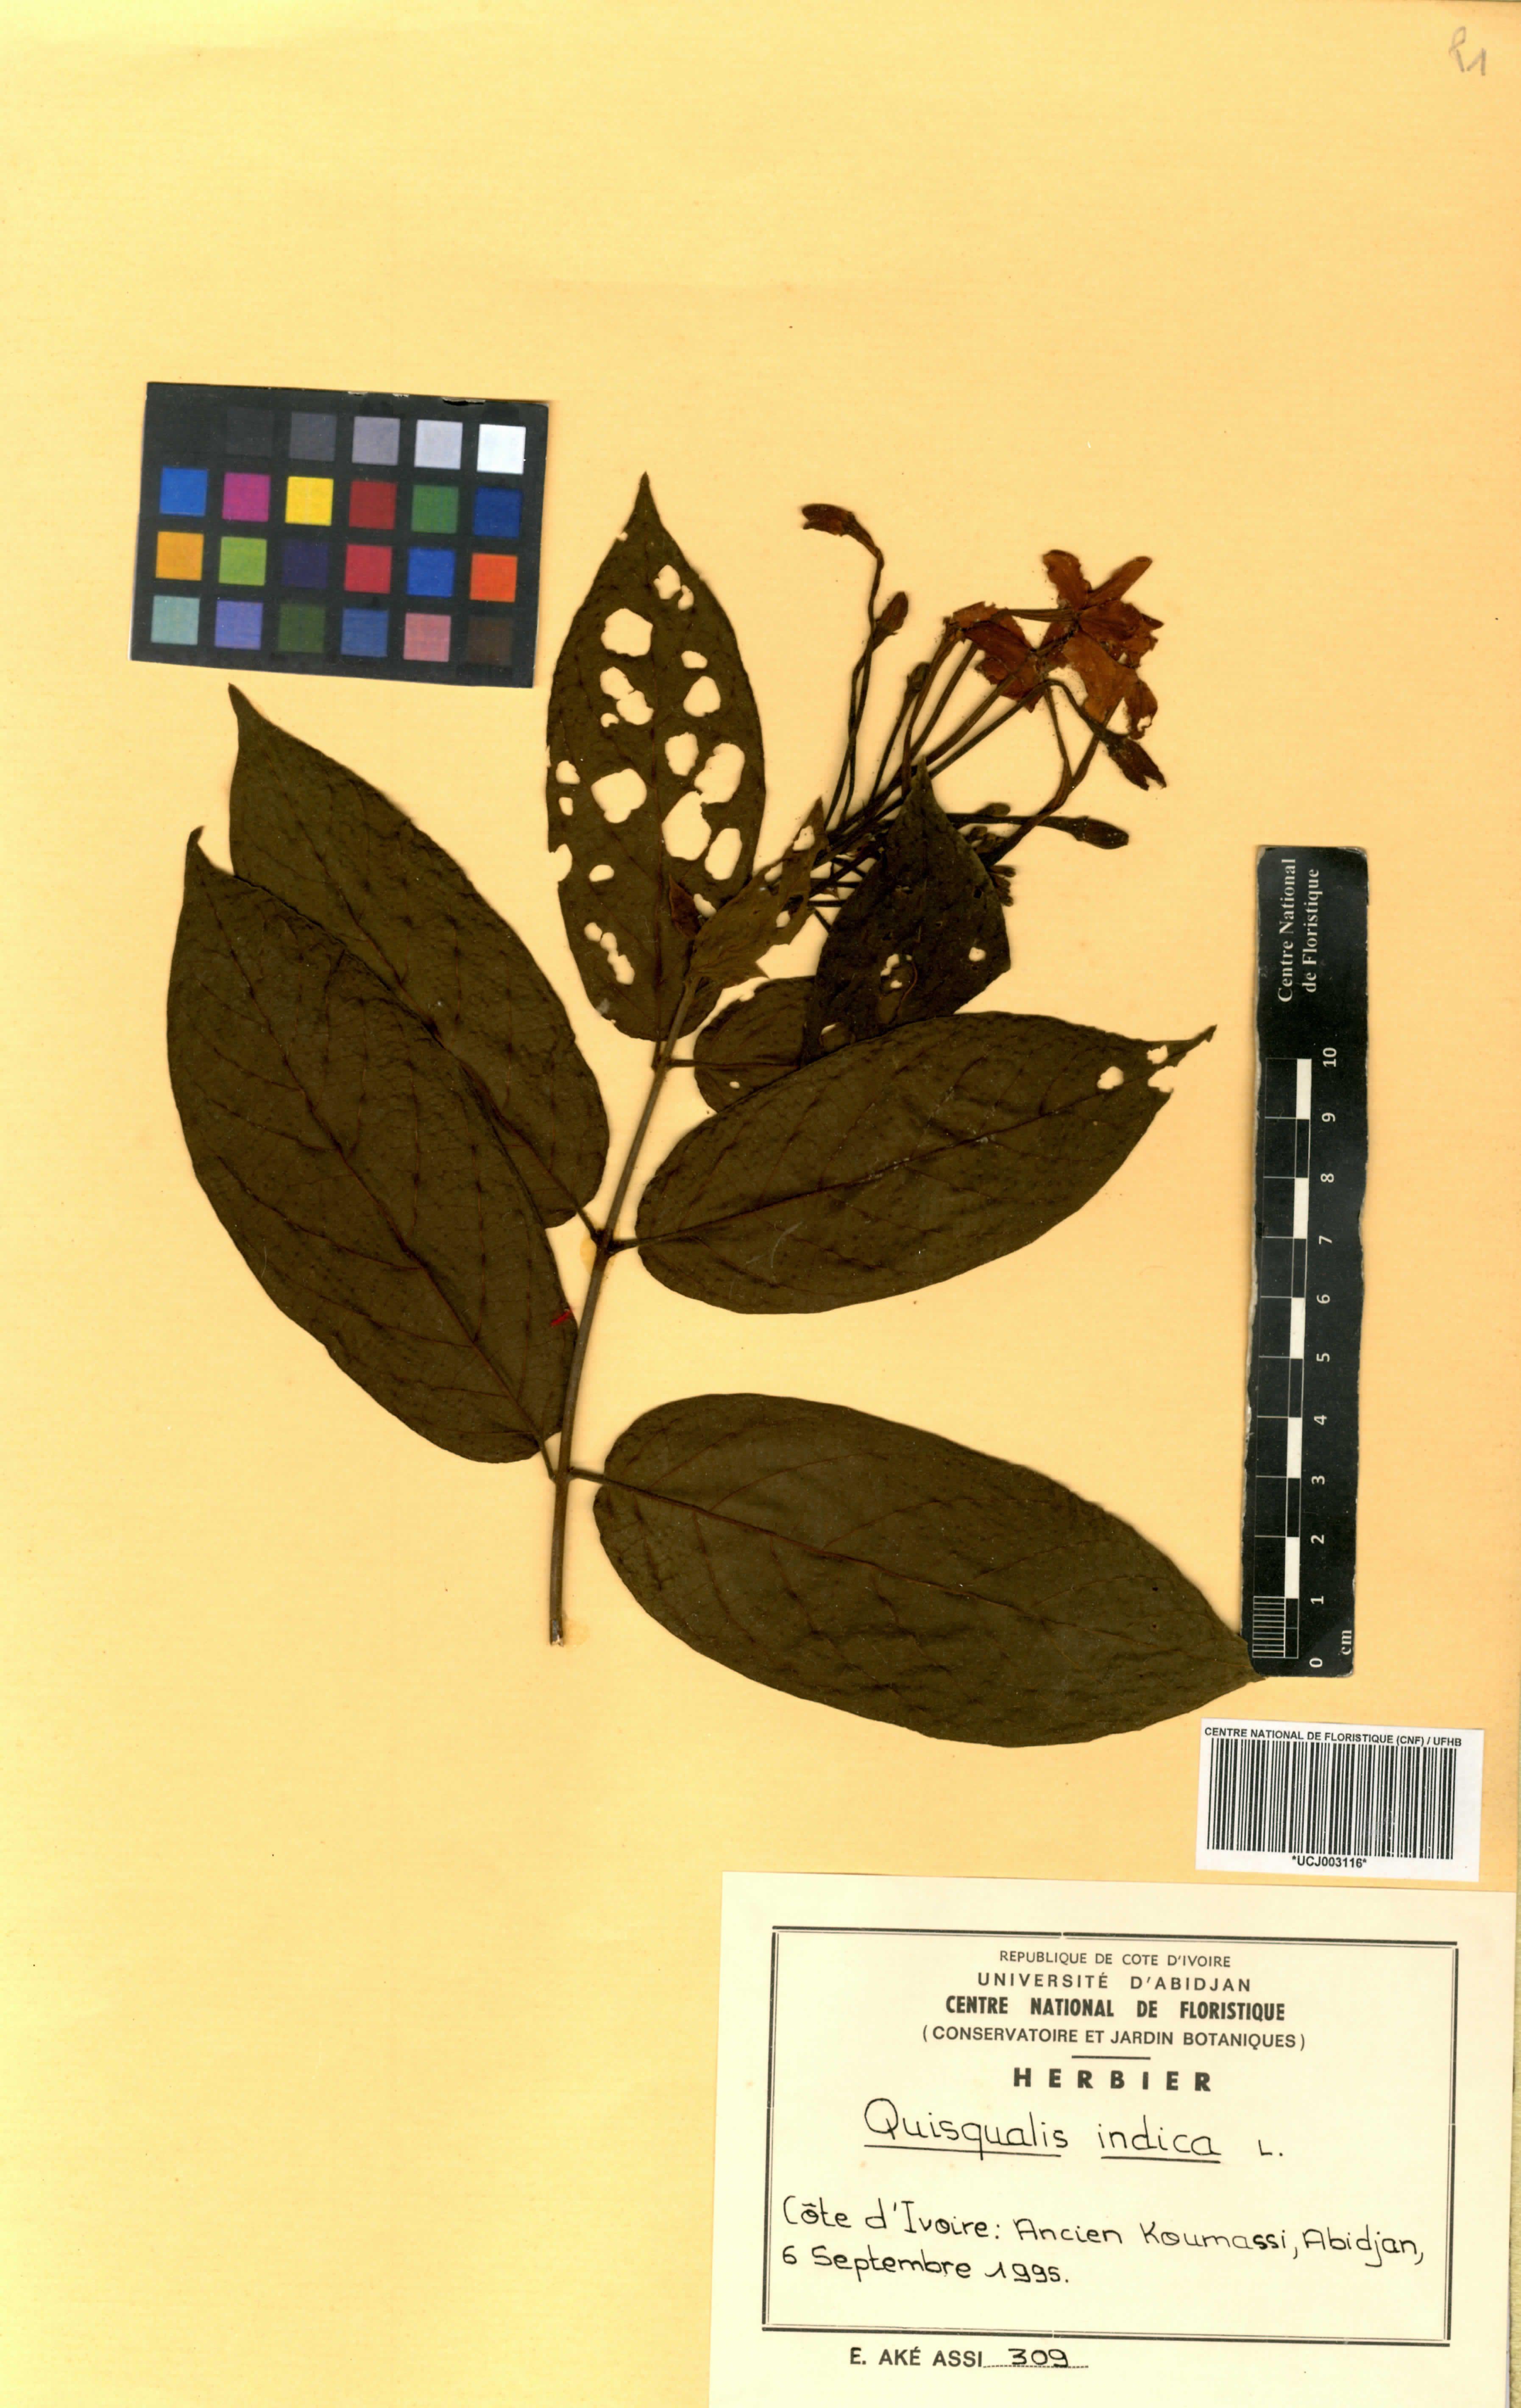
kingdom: Plantae
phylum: Tracheophyta
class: Magnoliopsida
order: Myrtales
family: Combretaceae
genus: Combretum
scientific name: Combretum indicum
